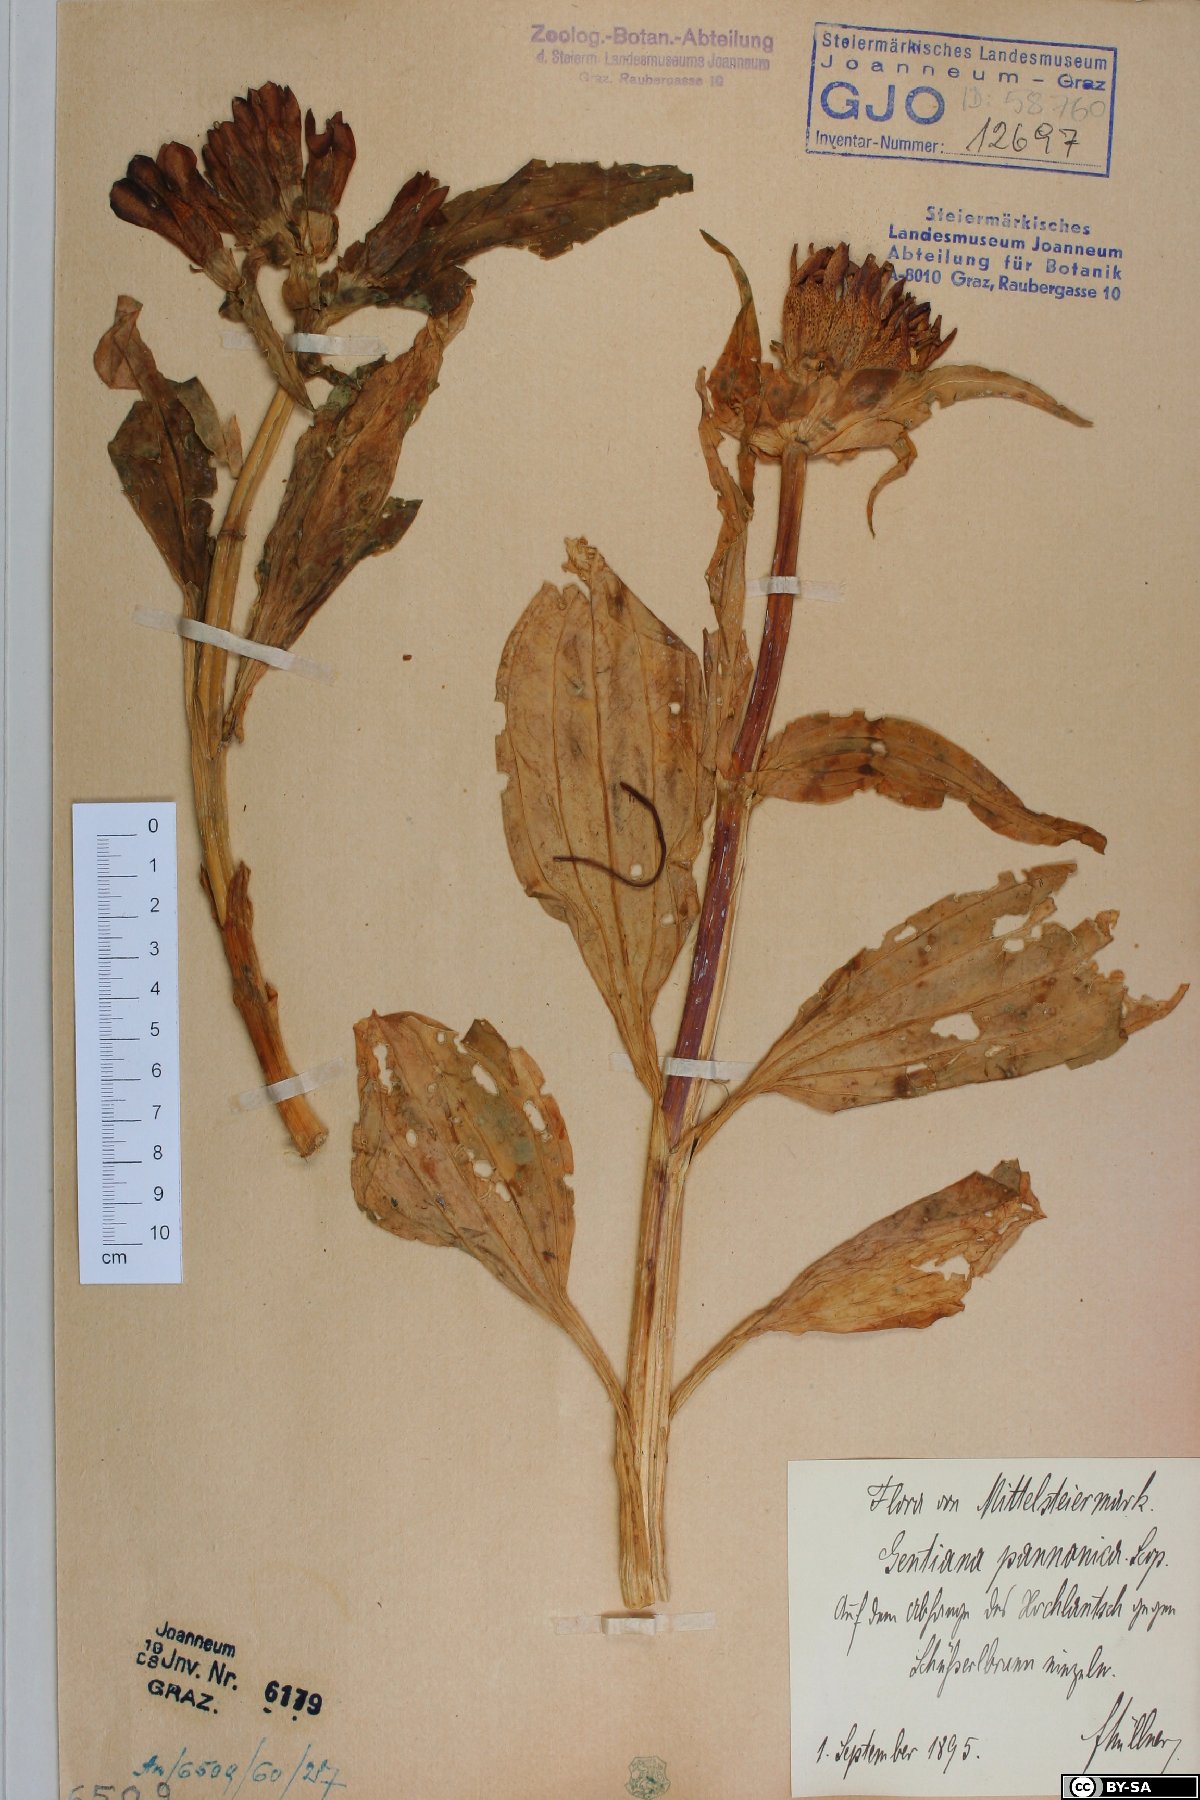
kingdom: Plantae
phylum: Tracheophyta
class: Magnoliopsida
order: Gentianales
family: Gentianaceae
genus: Gentiana
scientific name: Gentiana pannonica
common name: Hungarian gentian
